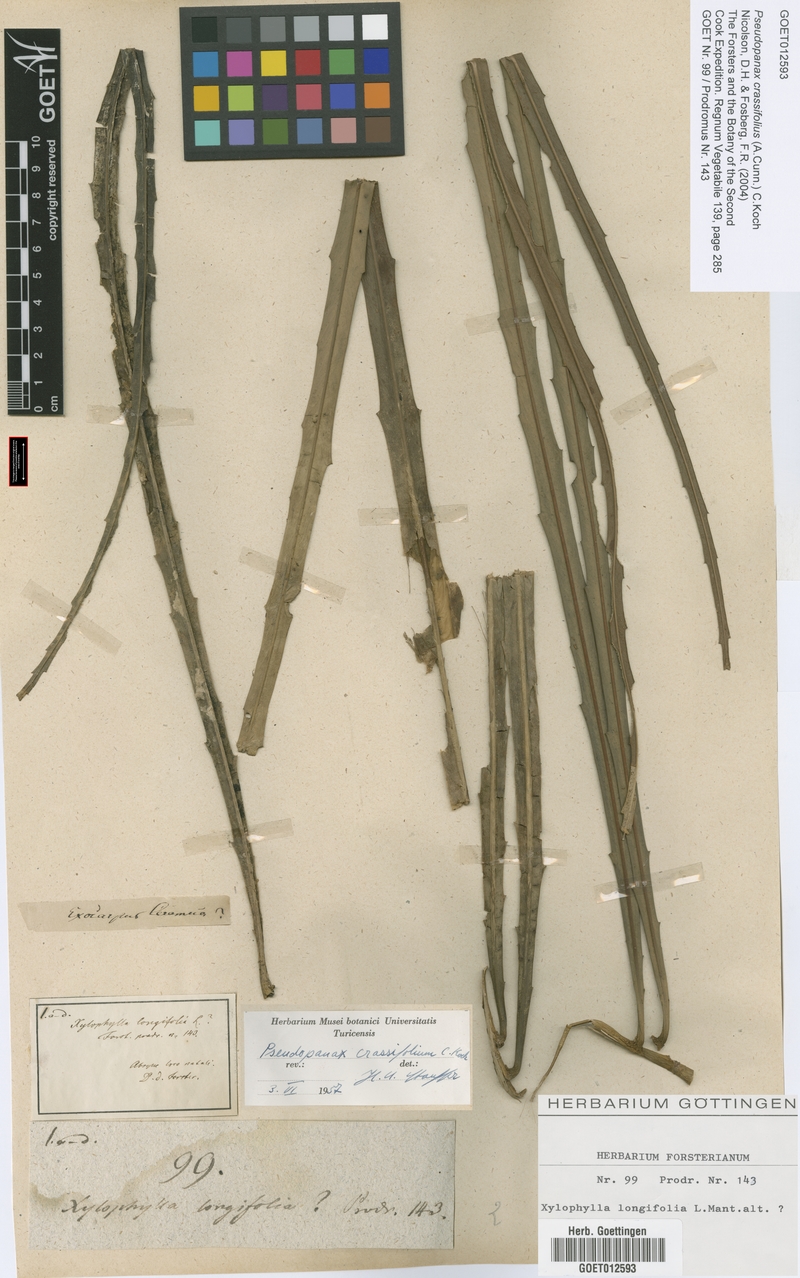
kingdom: Plantae
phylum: Tracheophyta
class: Magnoliopsida
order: Apiales
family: Araliaceae
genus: Pseudopanax
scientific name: Pseudopanax crassifolius
